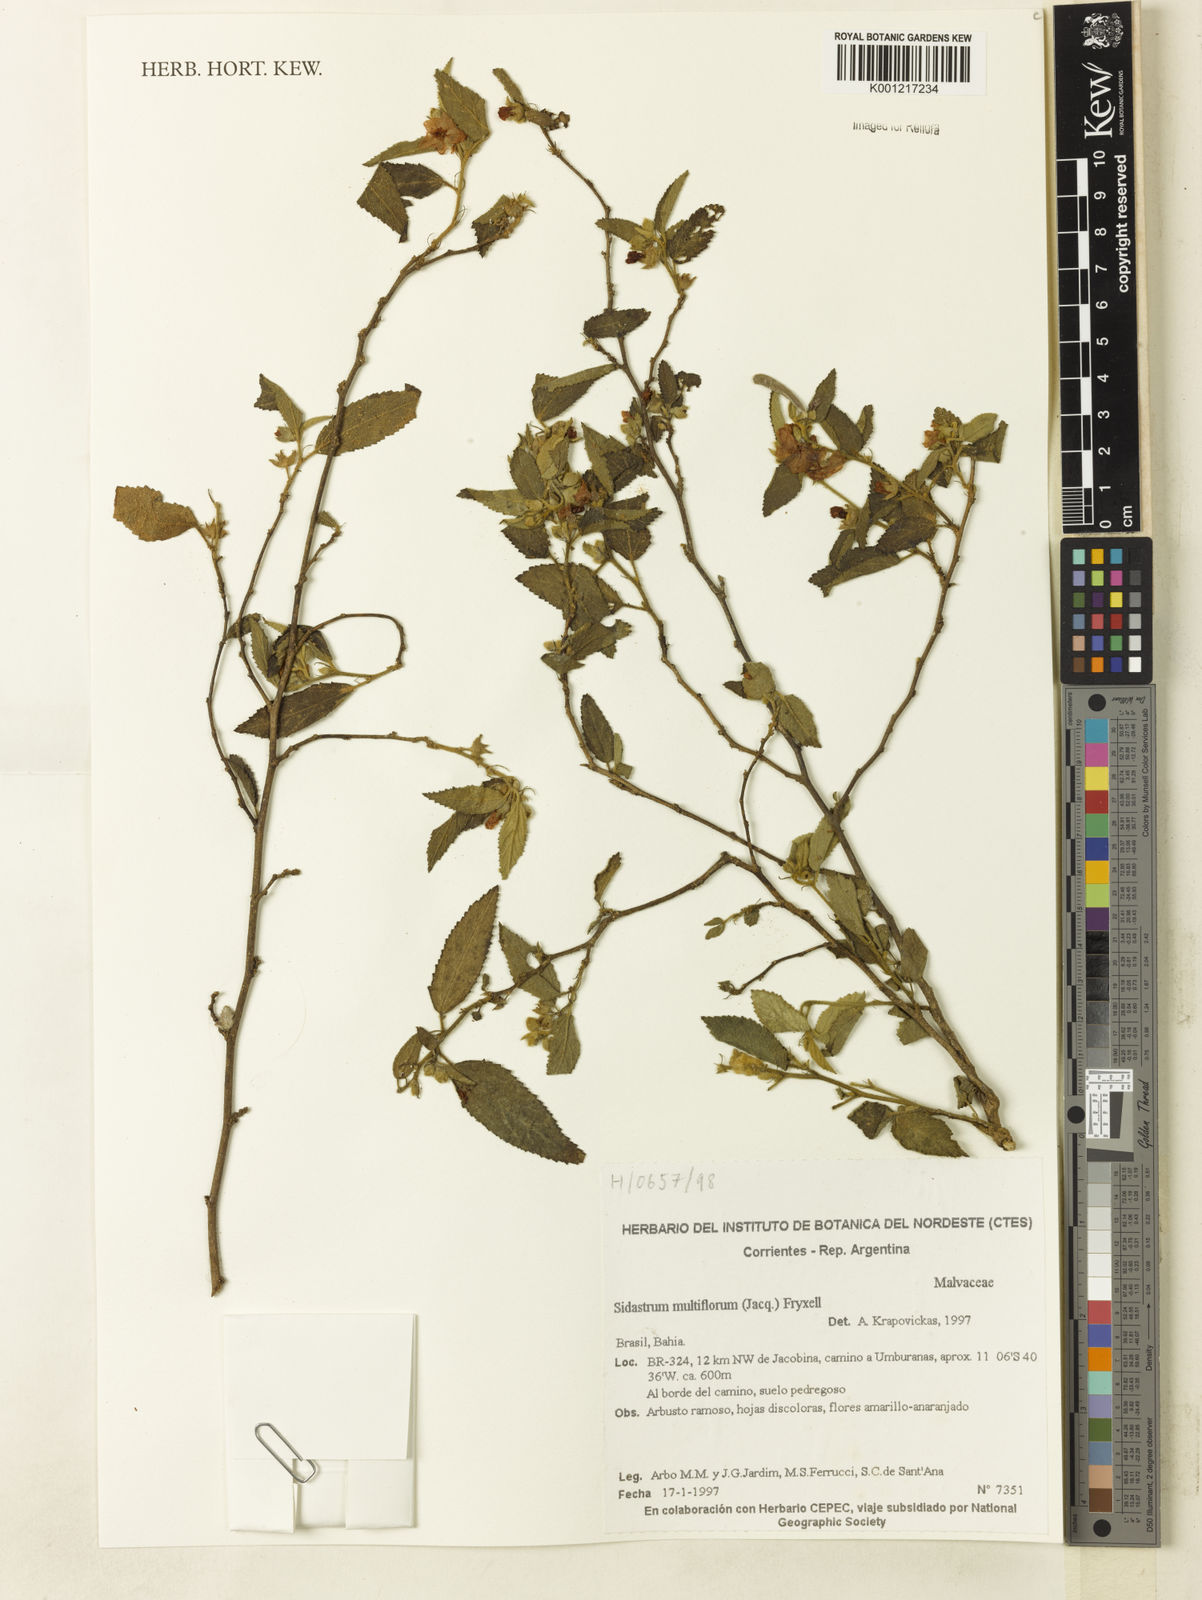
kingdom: Plantae
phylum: Tracheophyta
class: Magnoliopsida
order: Malvales
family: Malvaceae
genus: Sidastrum
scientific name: Sidastrum multiflorum
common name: Manyflower sandmallow
